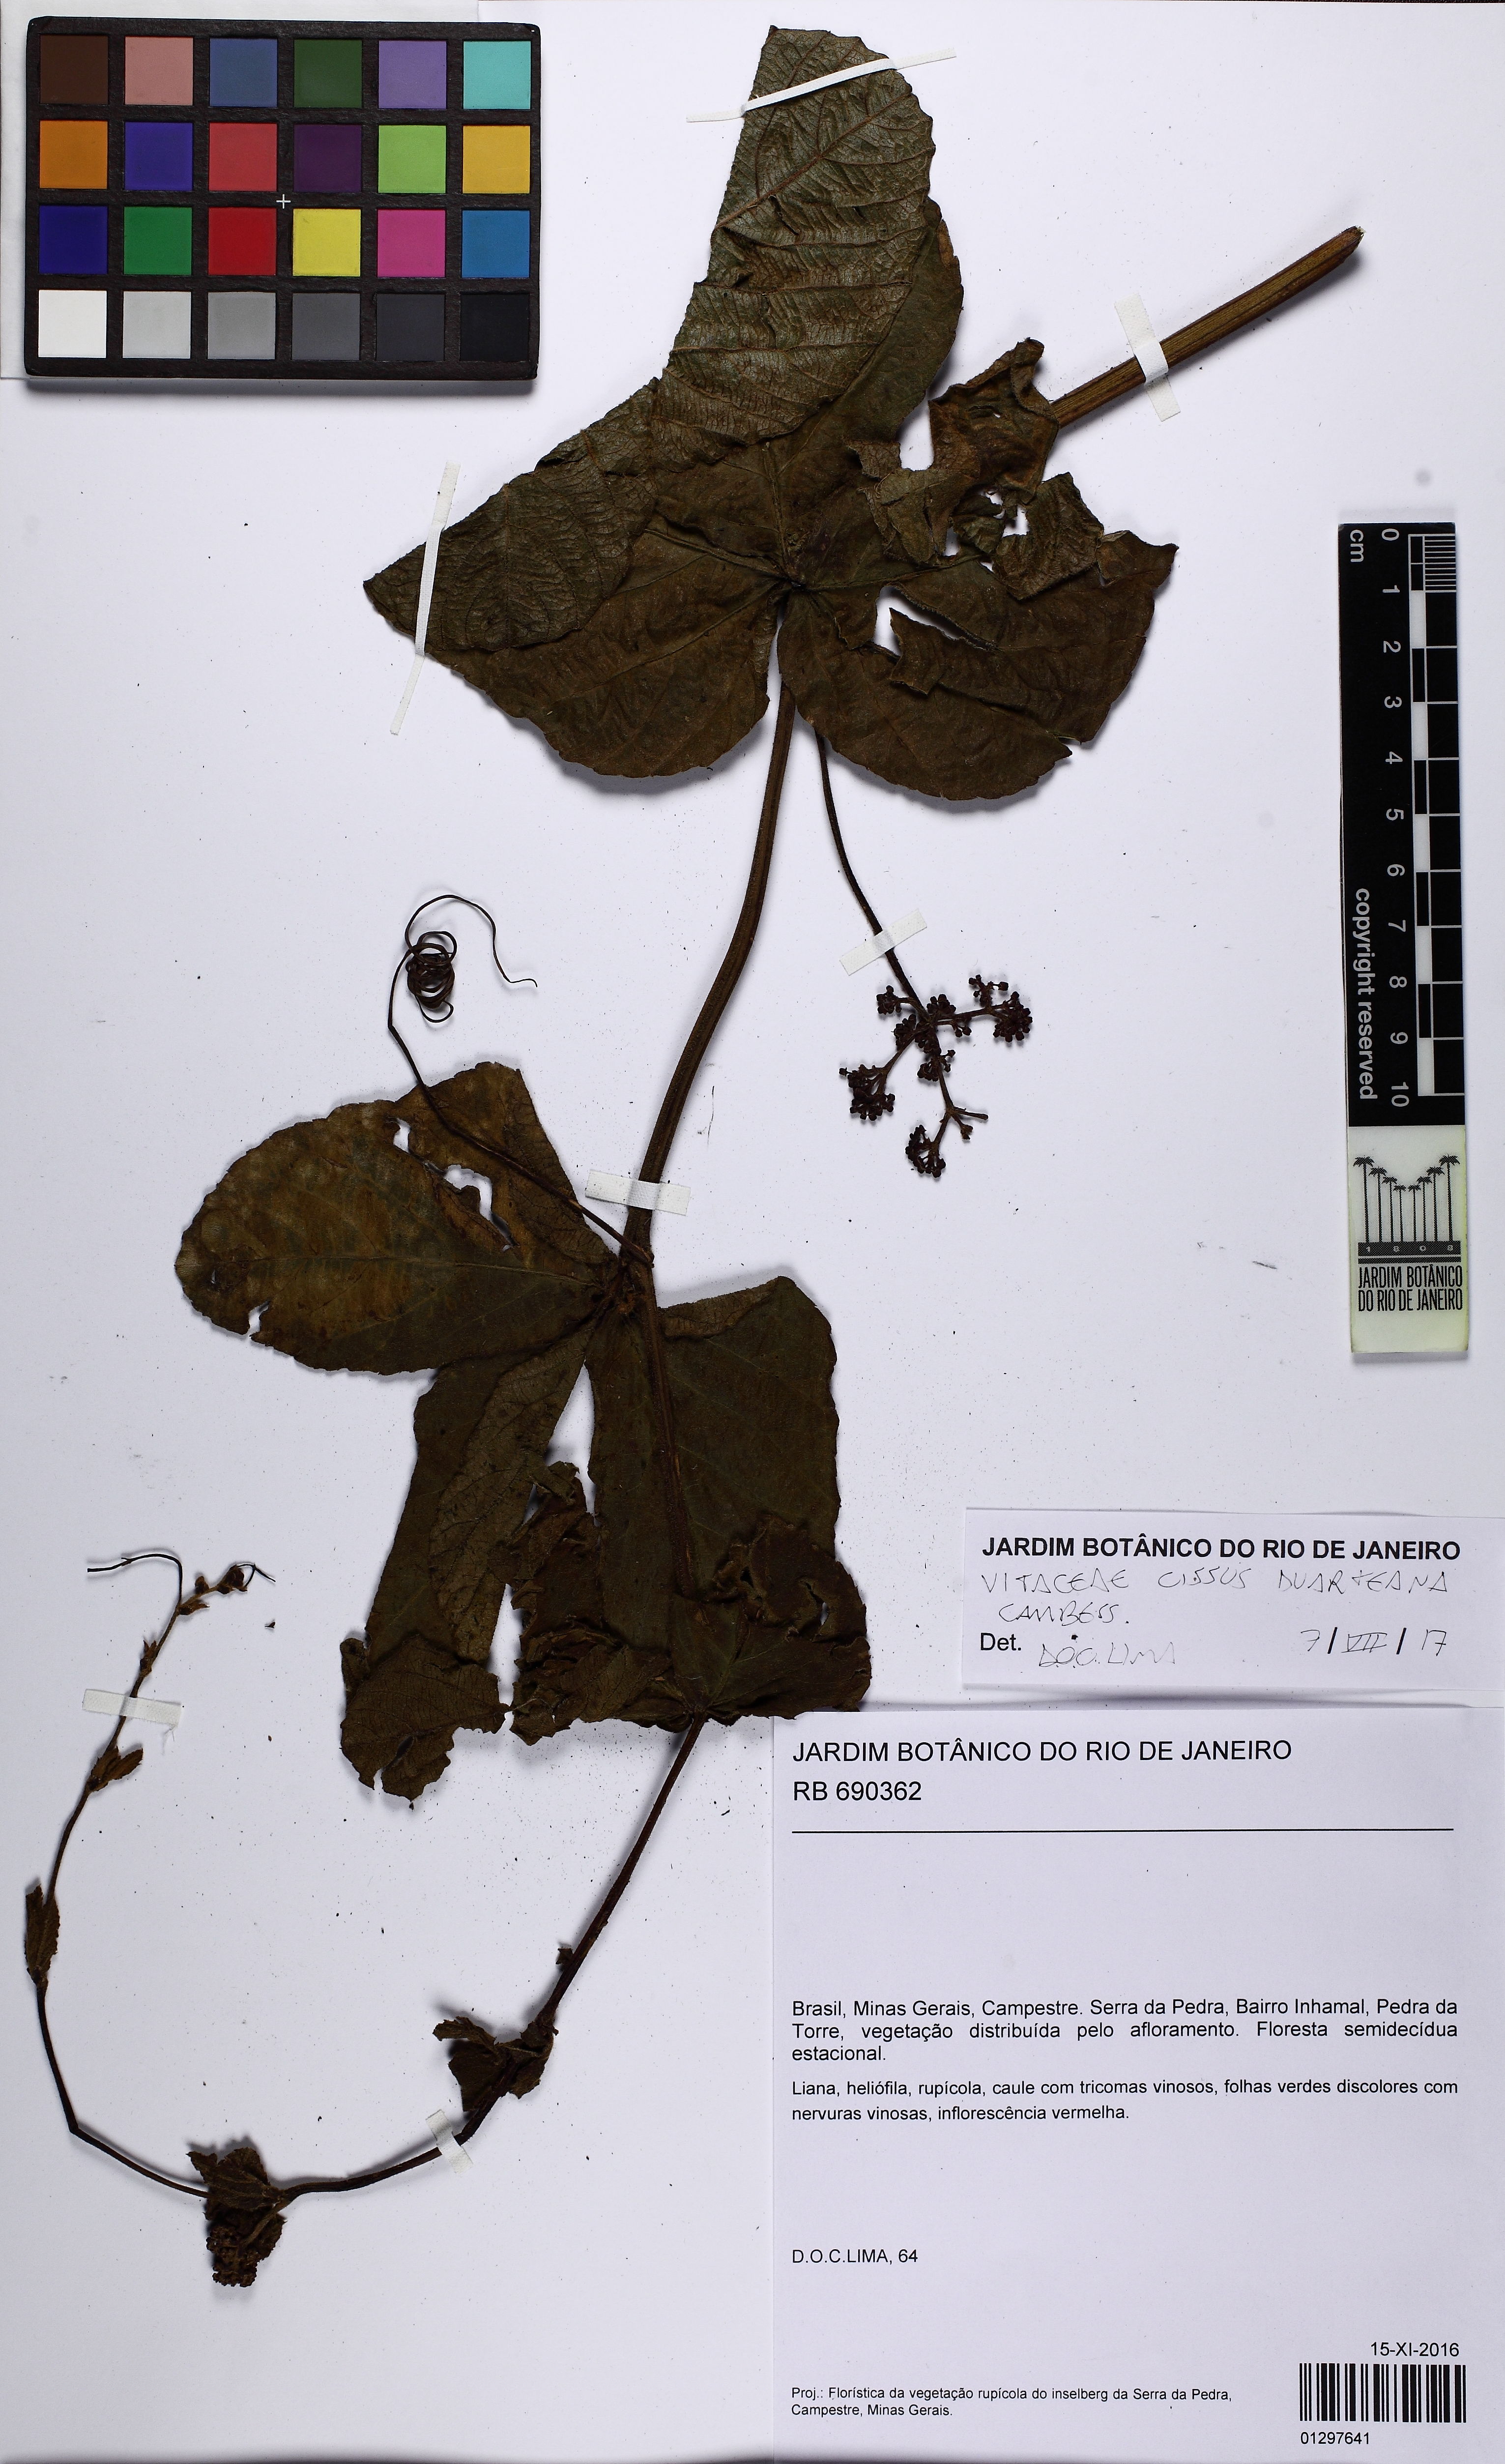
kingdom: Plantae
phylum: Tracheophyta
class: Magnoliopsida
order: Vitales
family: Vitaceae
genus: Cissus
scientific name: Cissus duarteana
